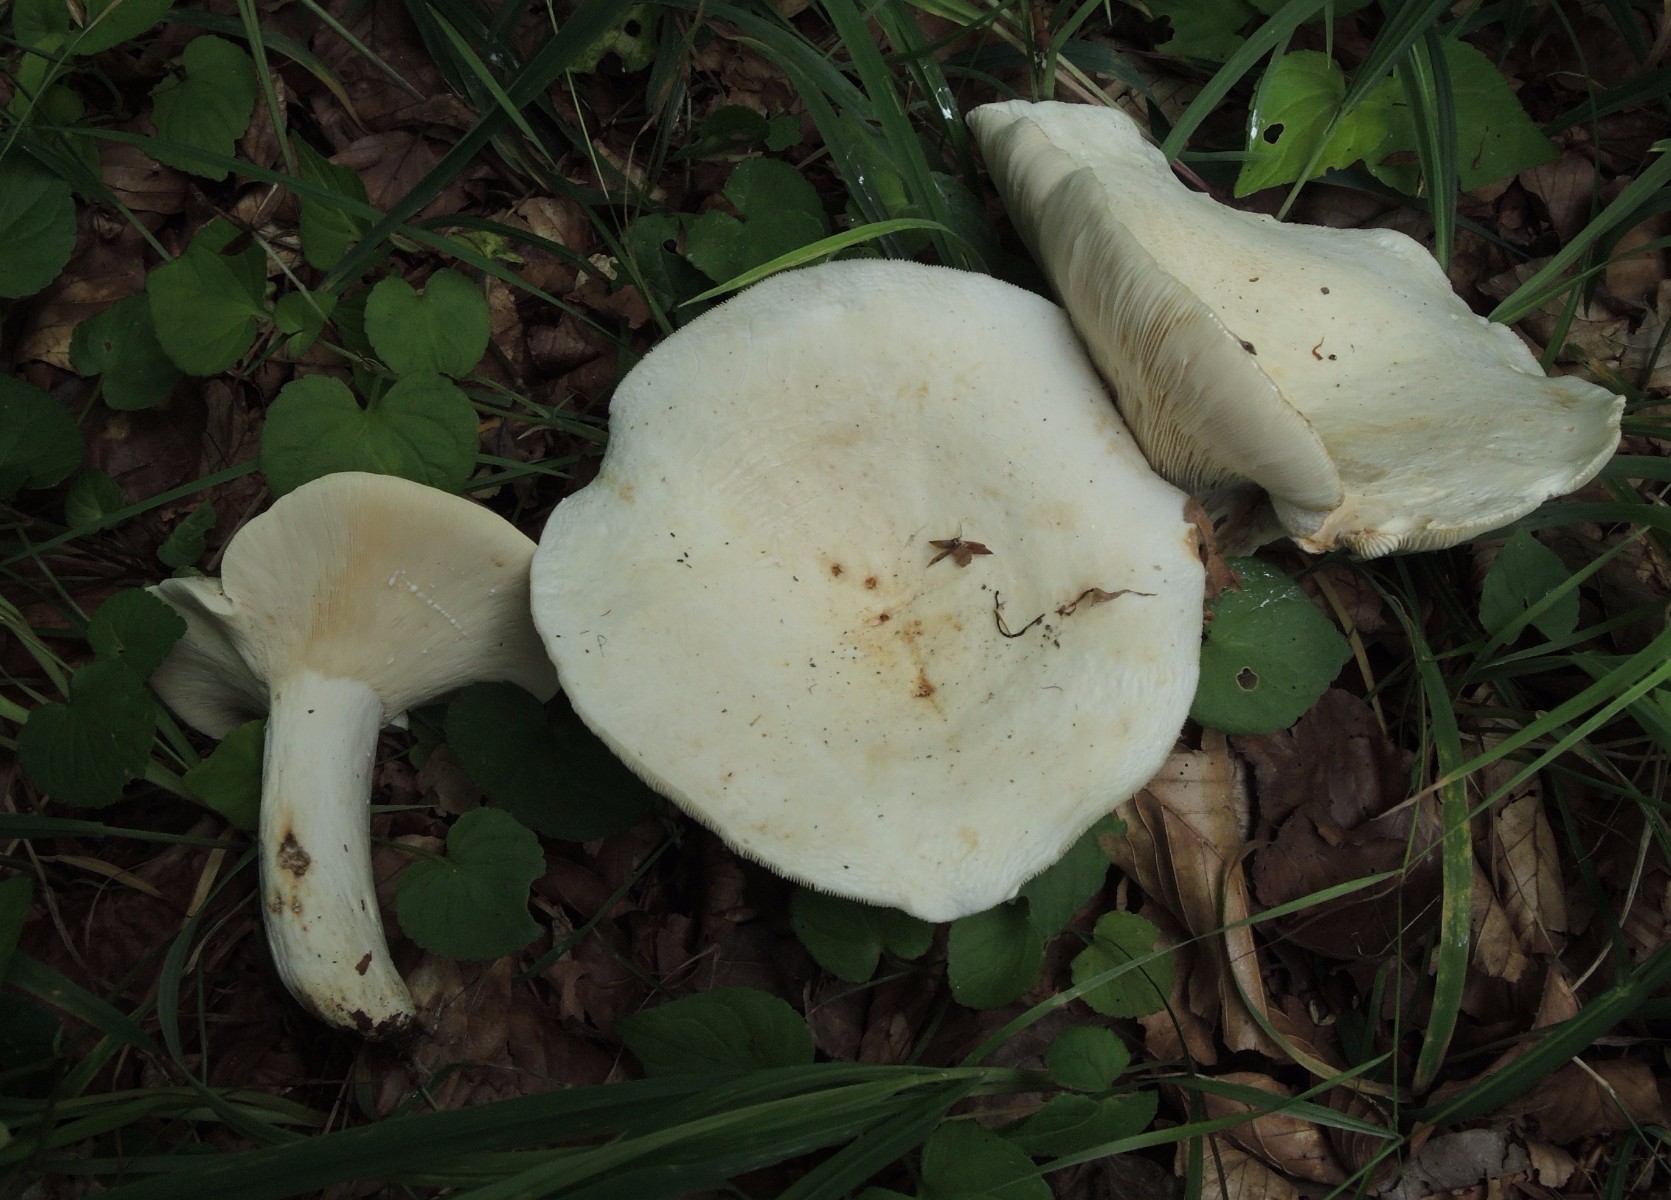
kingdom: Fungi
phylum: Basidiomycota
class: Agaricomycetes
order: Russulales
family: Russulaceae
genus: Lactifluus
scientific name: Lactifluus vellereus
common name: hvidfiltet mælkehat
